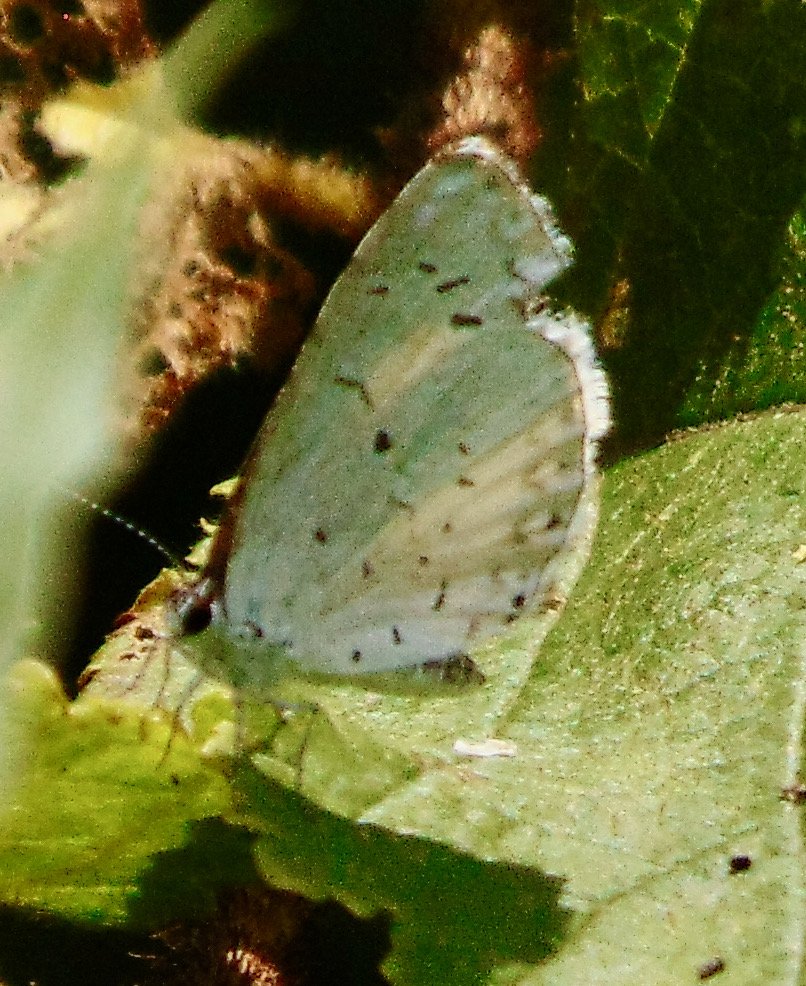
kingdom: Animalia
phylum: Arthropoda
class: Insecta
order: Lepidoptera
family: Lycaenidae
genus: Cyaniris
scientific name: Cyaniris neglecta
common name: Summer Azure
